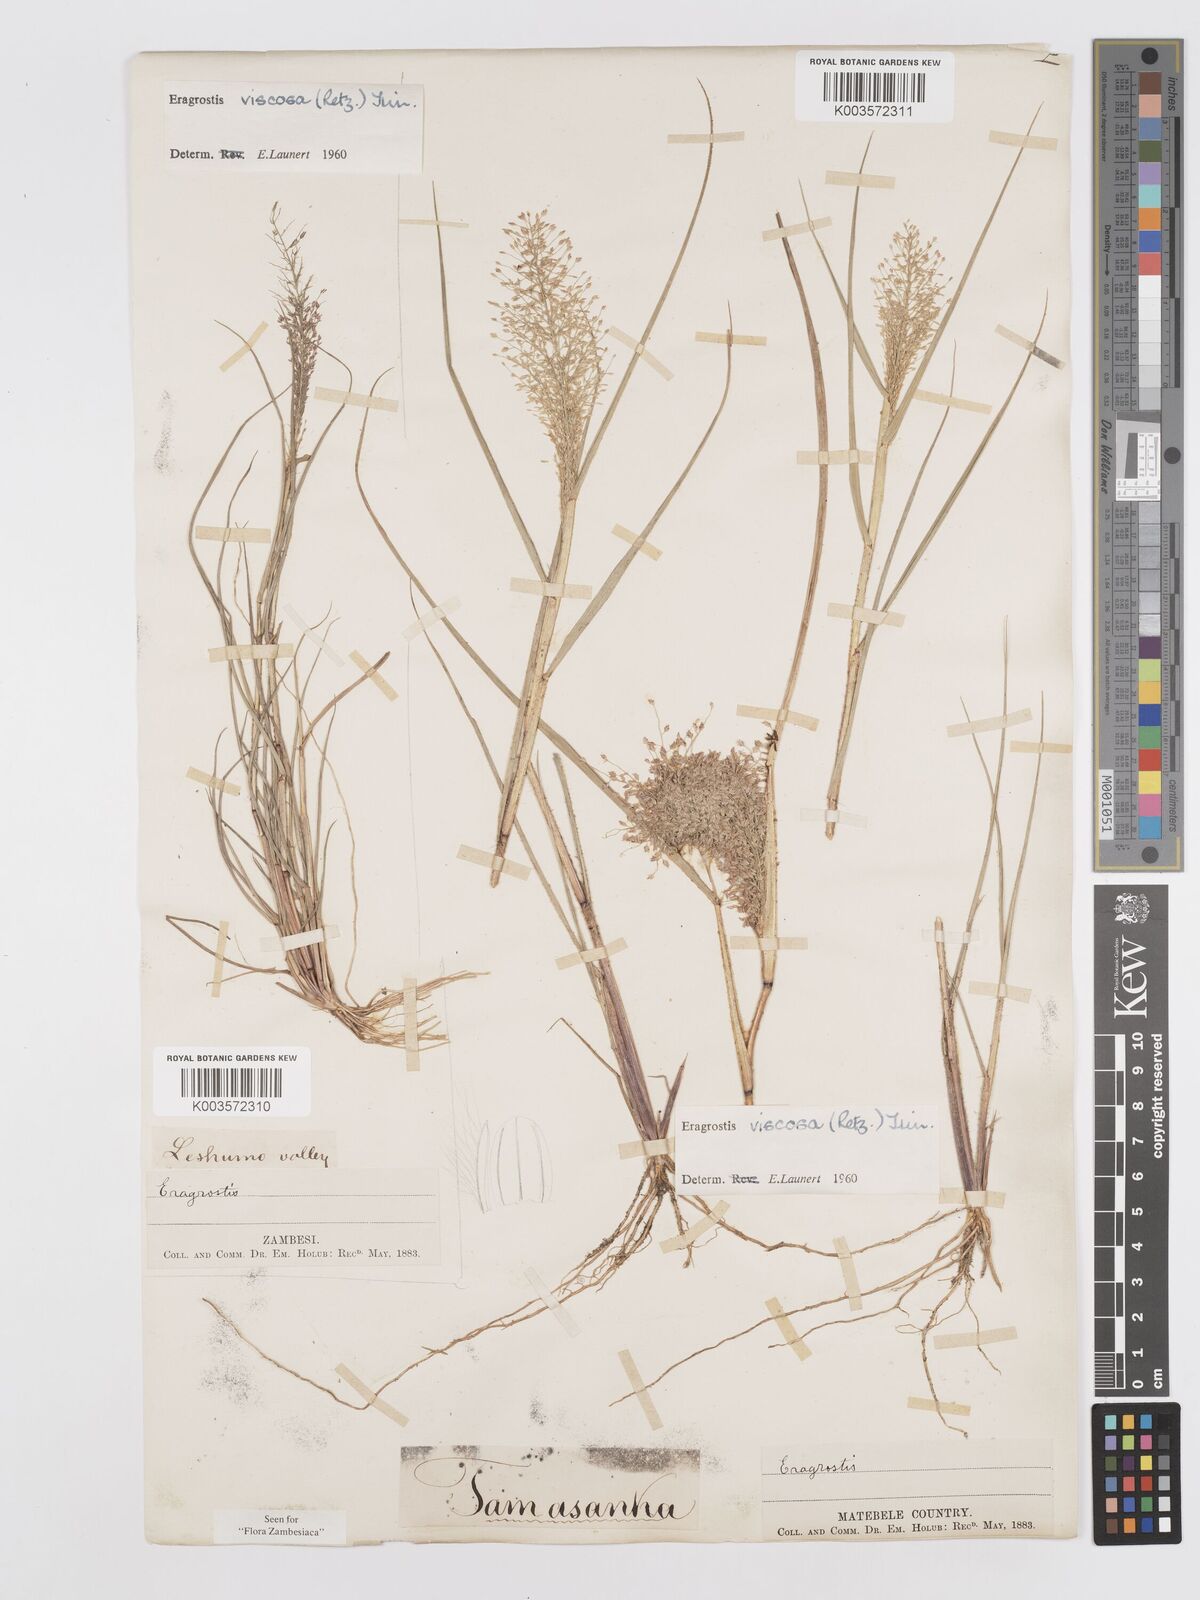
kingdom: Plantae
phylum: Tracheophyta
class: Liliopsida
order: Poales
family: Poaceae
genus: Eragrostis
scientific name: Eragrostis
